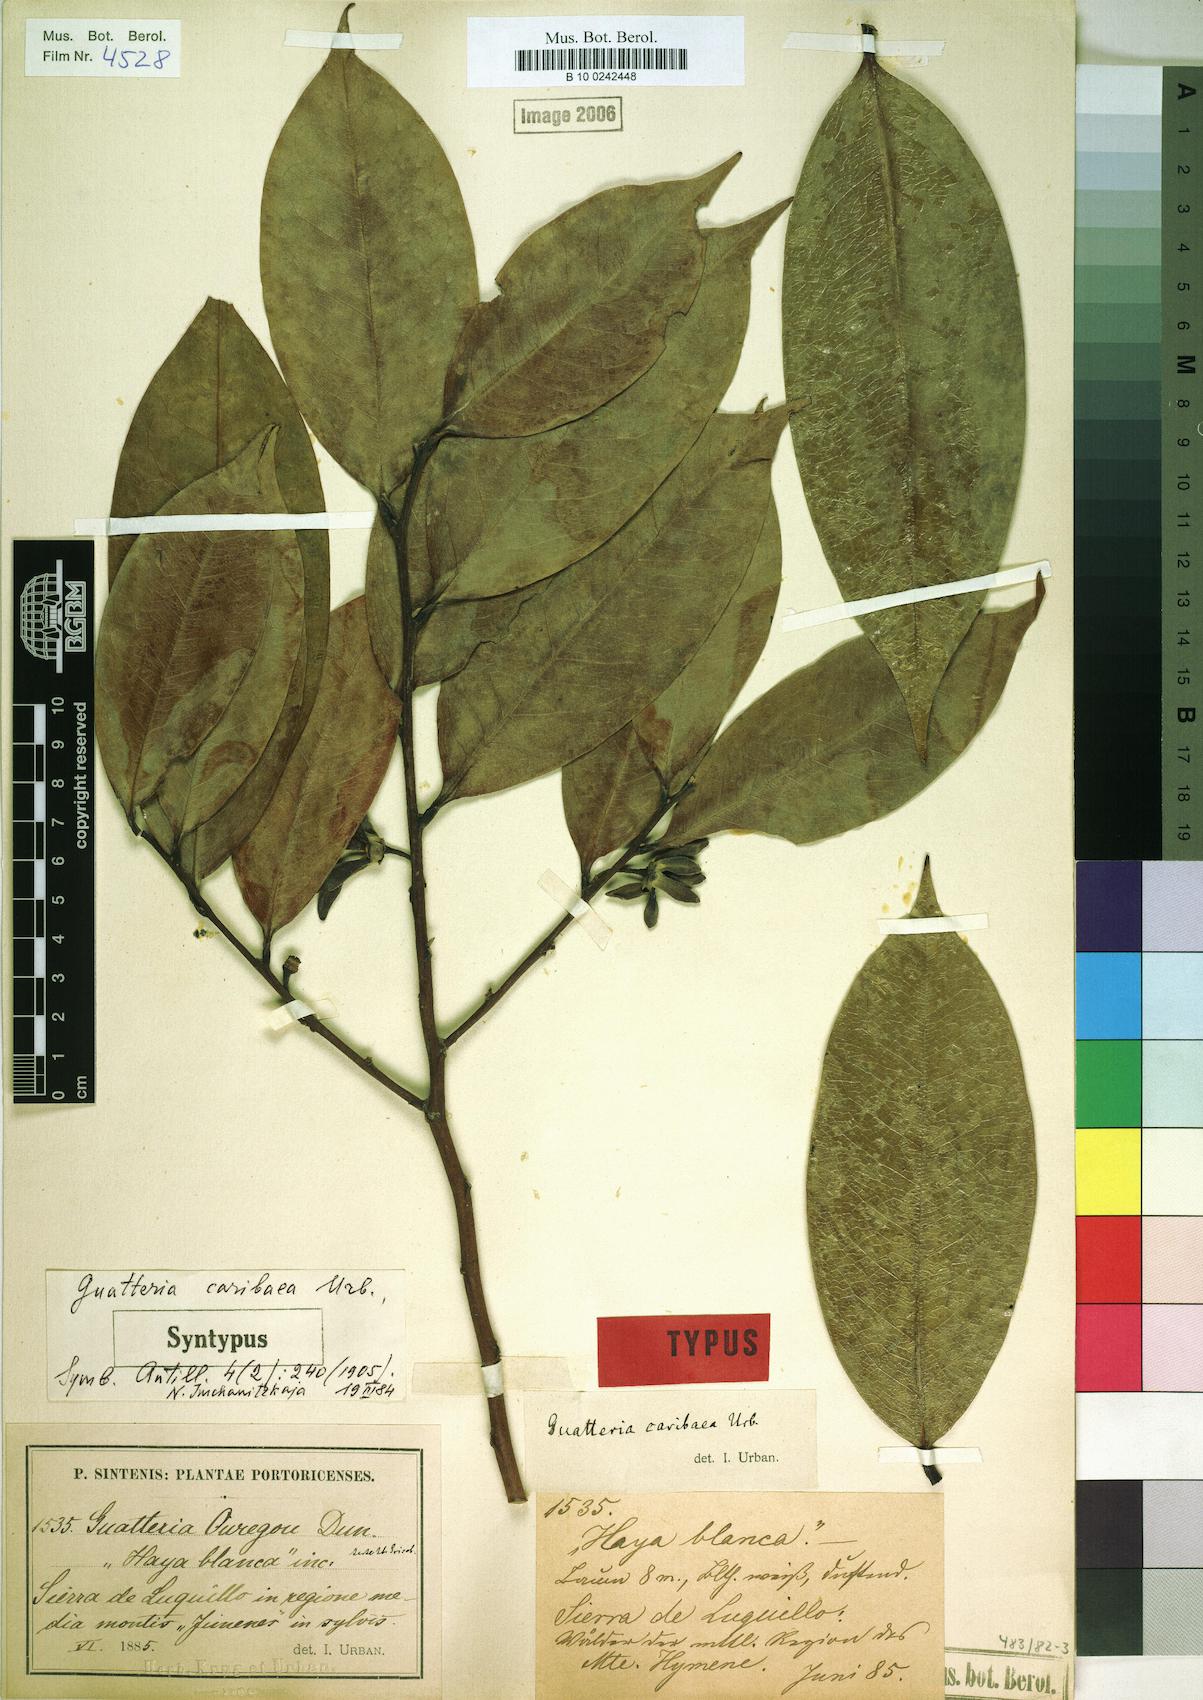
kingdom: Plantae
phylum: Tracheophyta
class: Magnoliopsida
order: Magnoliales
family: Annonaceae
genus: Guatteria
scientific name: Guatteria caribaea
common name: Wild soursop
